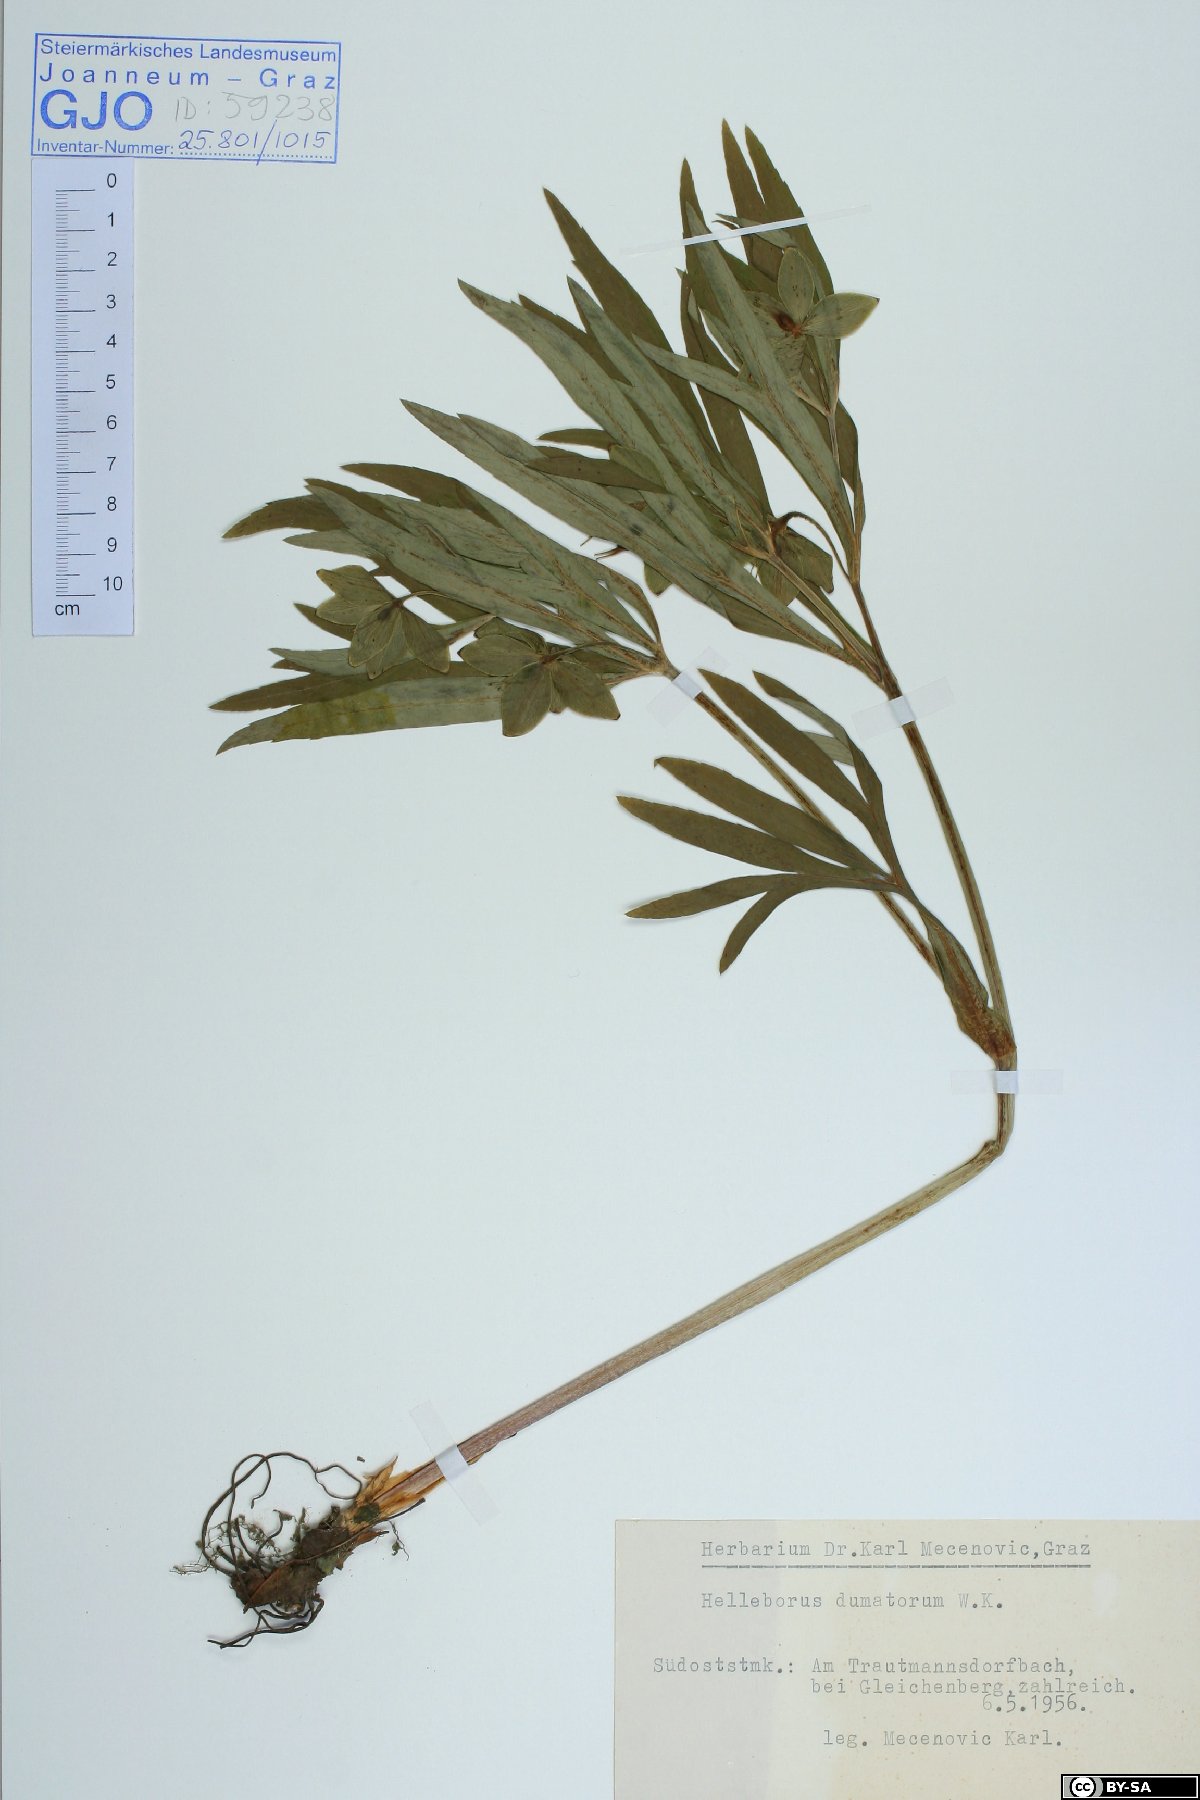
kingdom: Plantae
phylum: Tracheophyta
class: Magnoliopsida
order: Ranunculales
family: Ranunculaceae
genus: Helleborus
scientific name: Helleborus dumetorum
